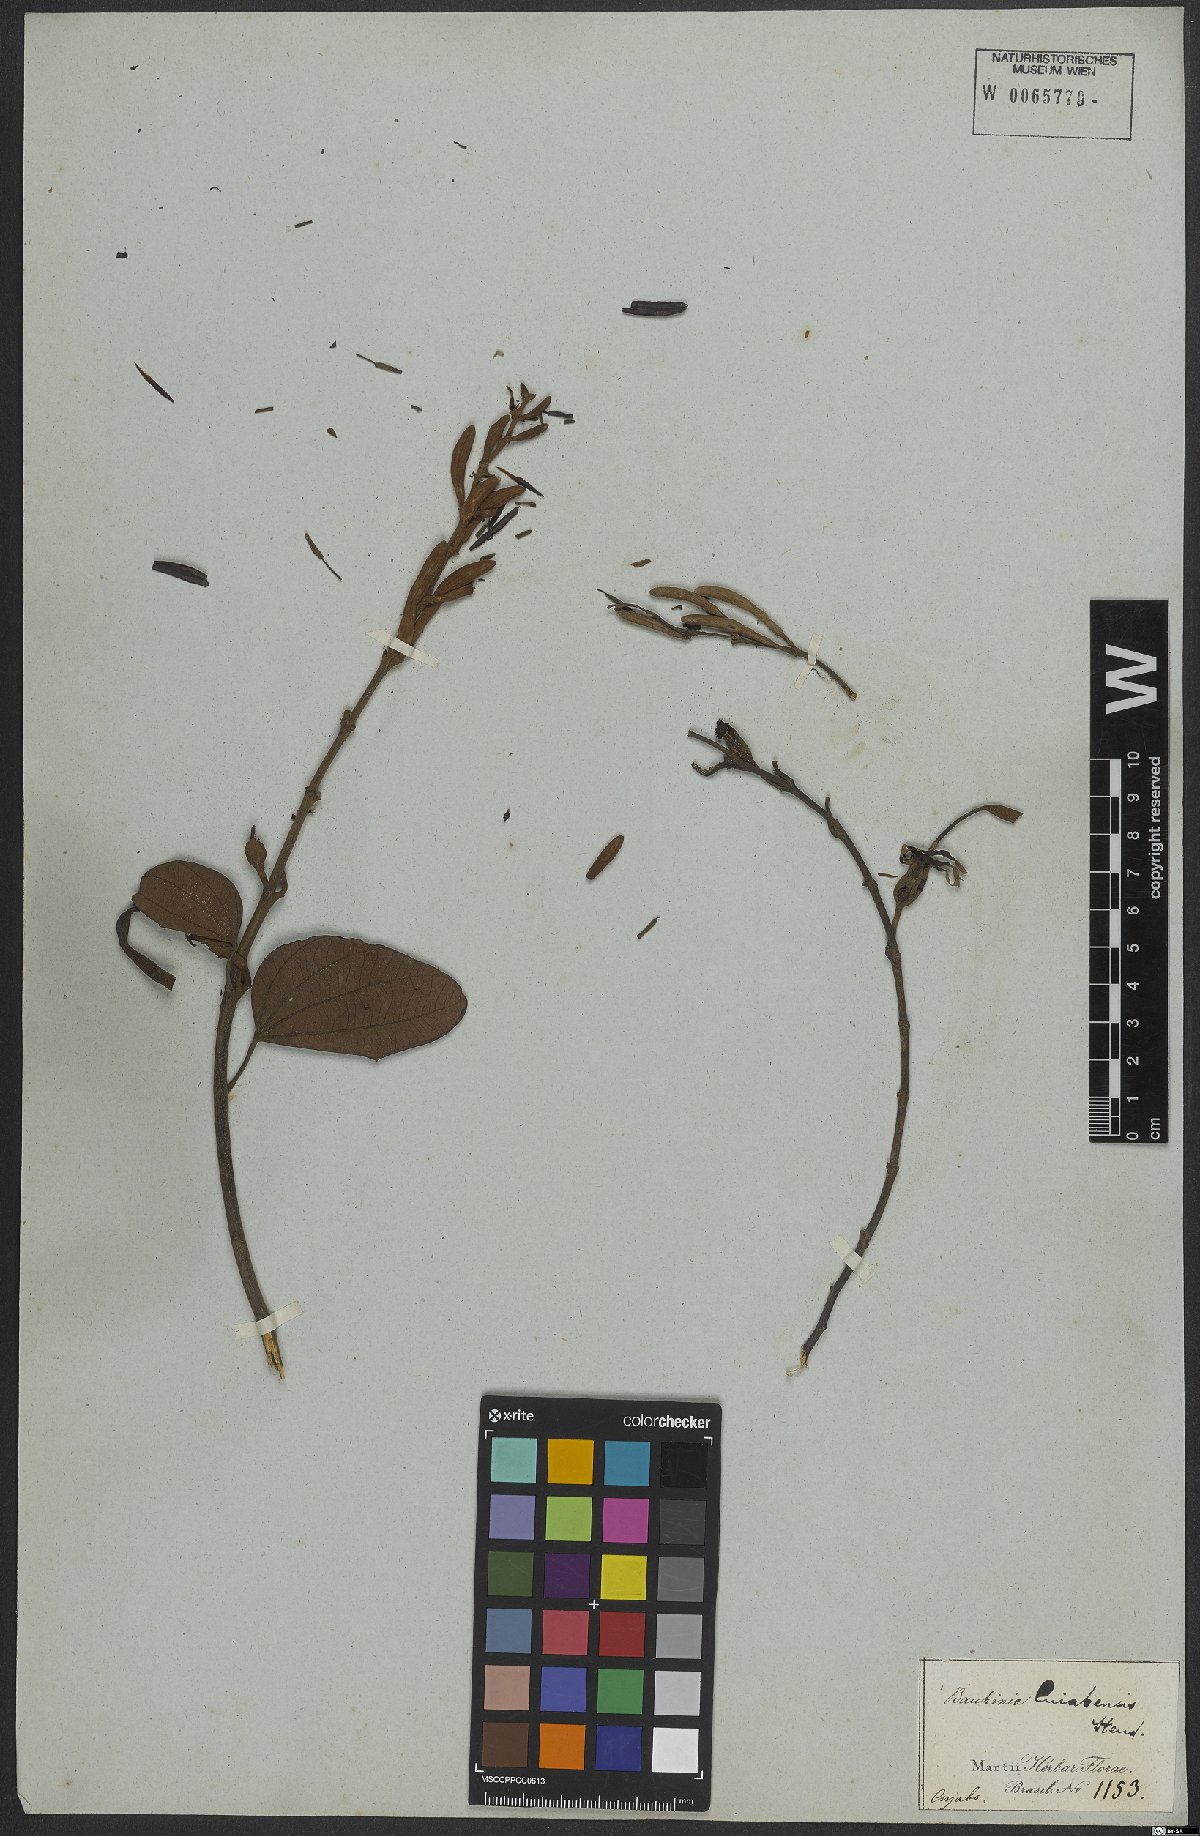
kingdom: Plantae
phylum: Tracheophyta
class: Magnoliopsida
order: Fabales
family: Fabaceae
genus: Bauhinia
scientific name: Bauhinia ungulata
